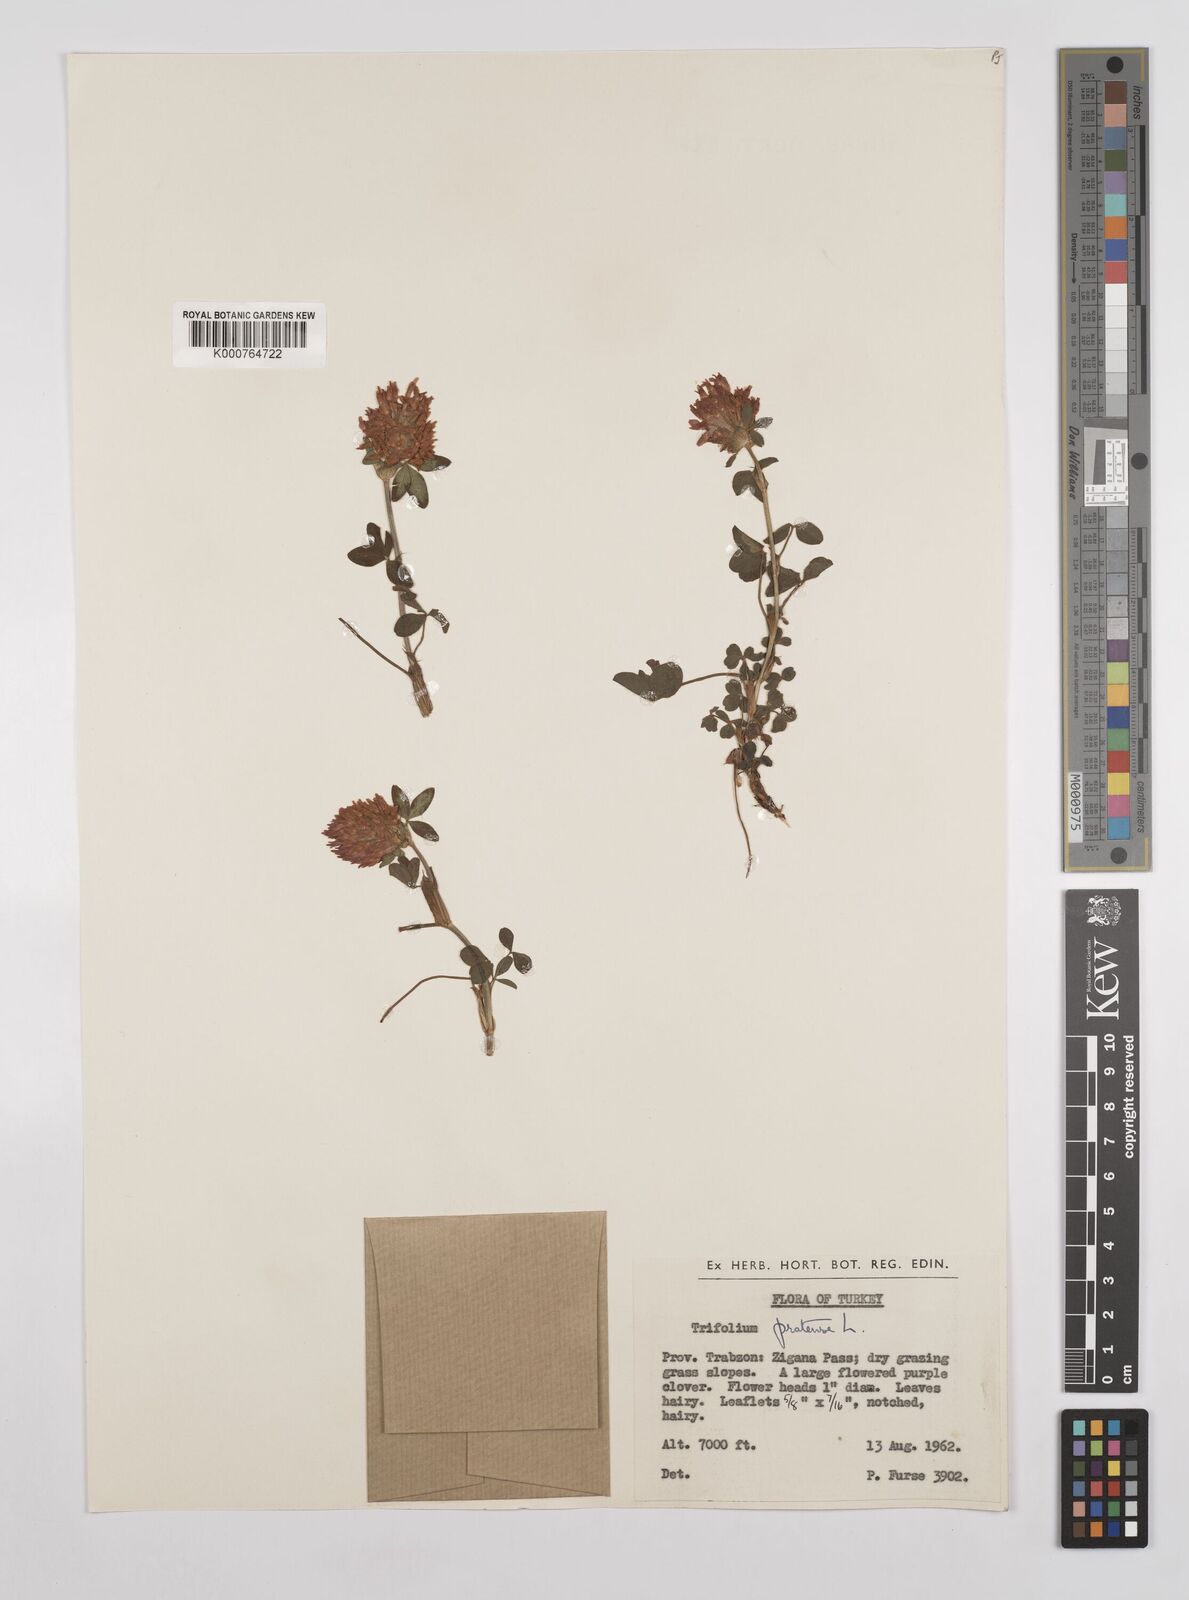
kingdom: Plantae
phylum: Tracheophyta
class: Magnoliopsida
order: Fabales
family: Fabaceae
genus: Trifolium
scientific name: Trifolium pratense
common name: Red clover
